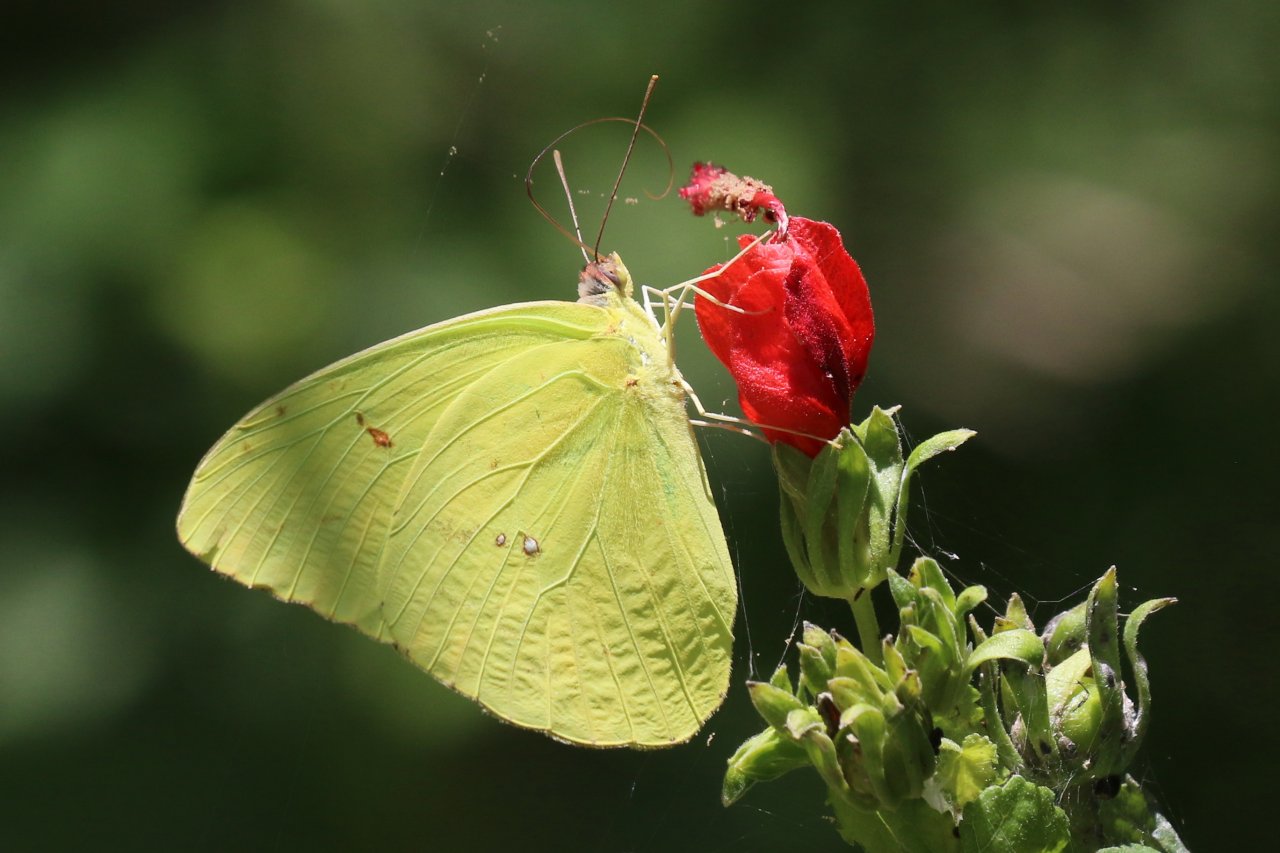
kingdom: Animalia
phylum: Arthropoda
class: Insecta
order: Lepidoptera
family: Pieridae
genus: Phoebis
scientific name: Phoebis sennae
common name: Cloudless Sulphur
